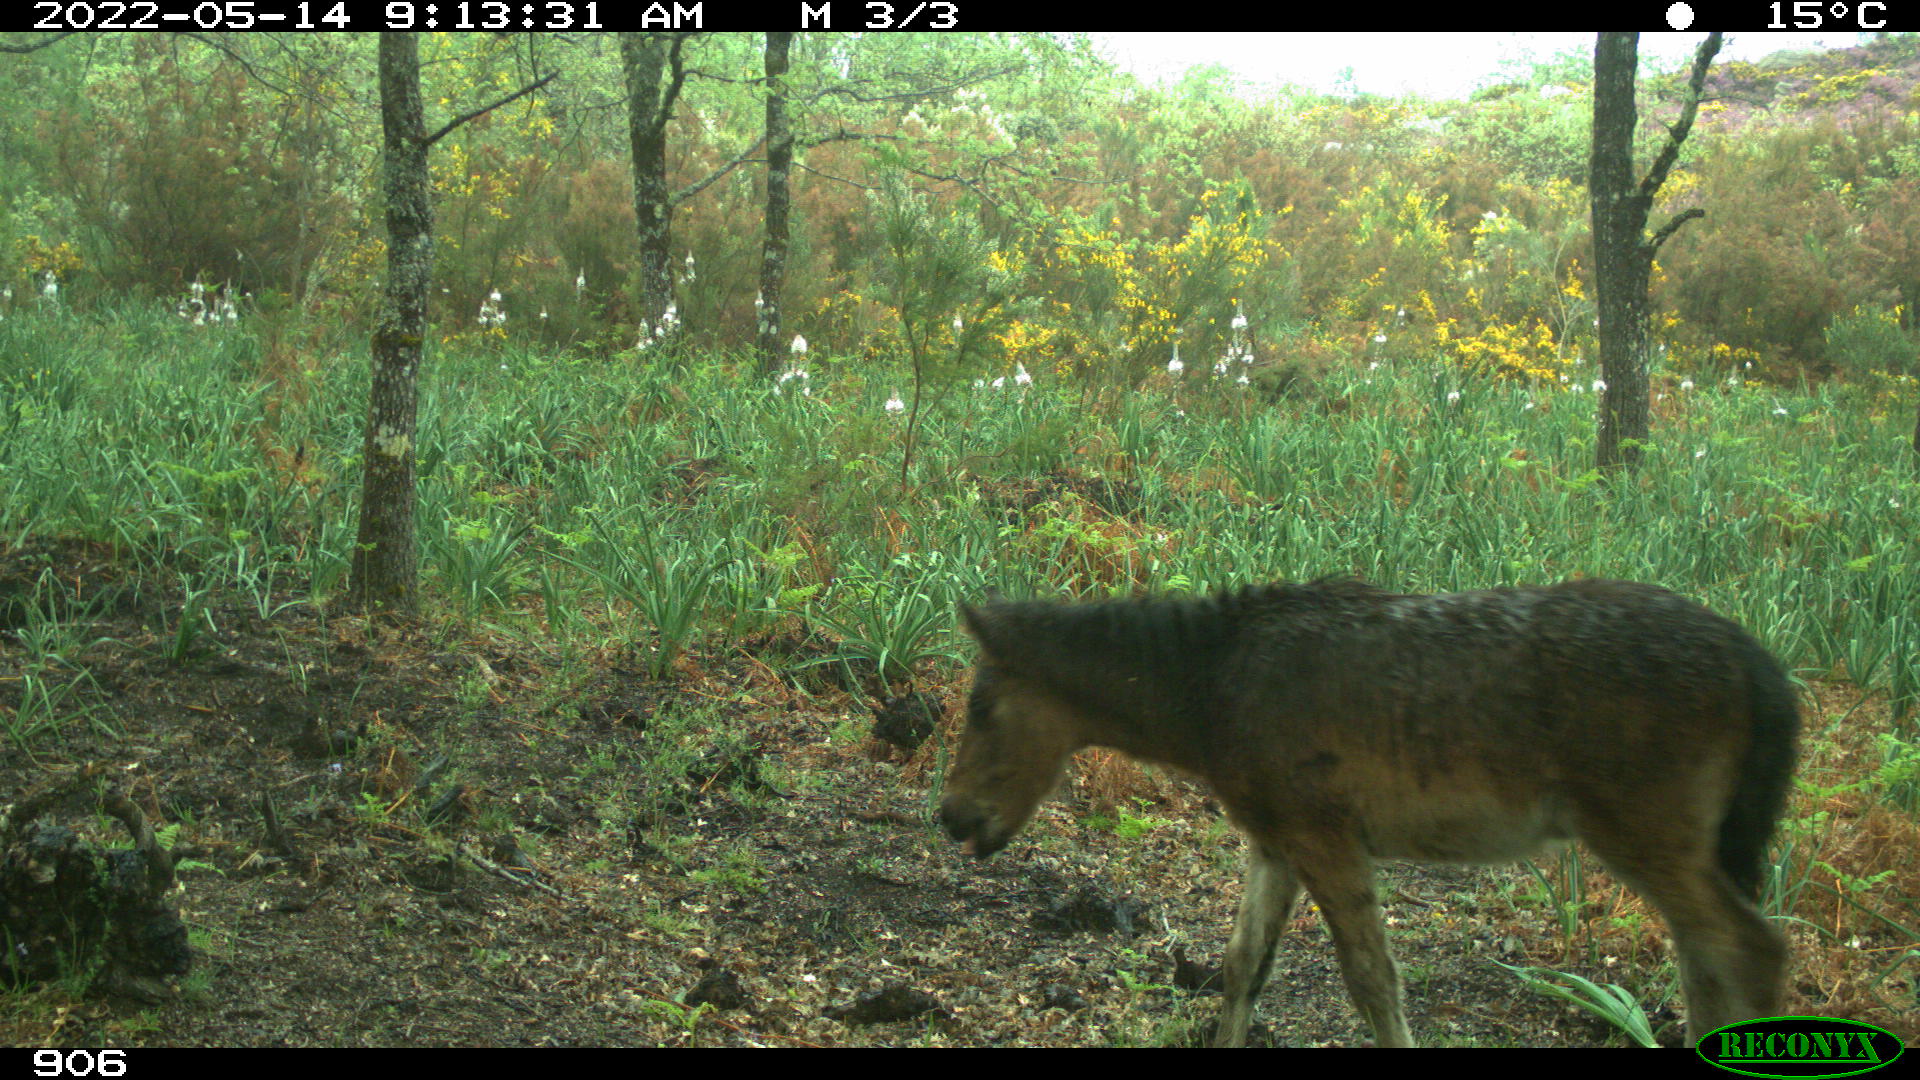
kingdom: Animalia
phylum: Chordata
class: Mammalia
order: Perissodactyla
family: Equidae
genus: Equus
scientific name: Equus caballus
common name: Horse
